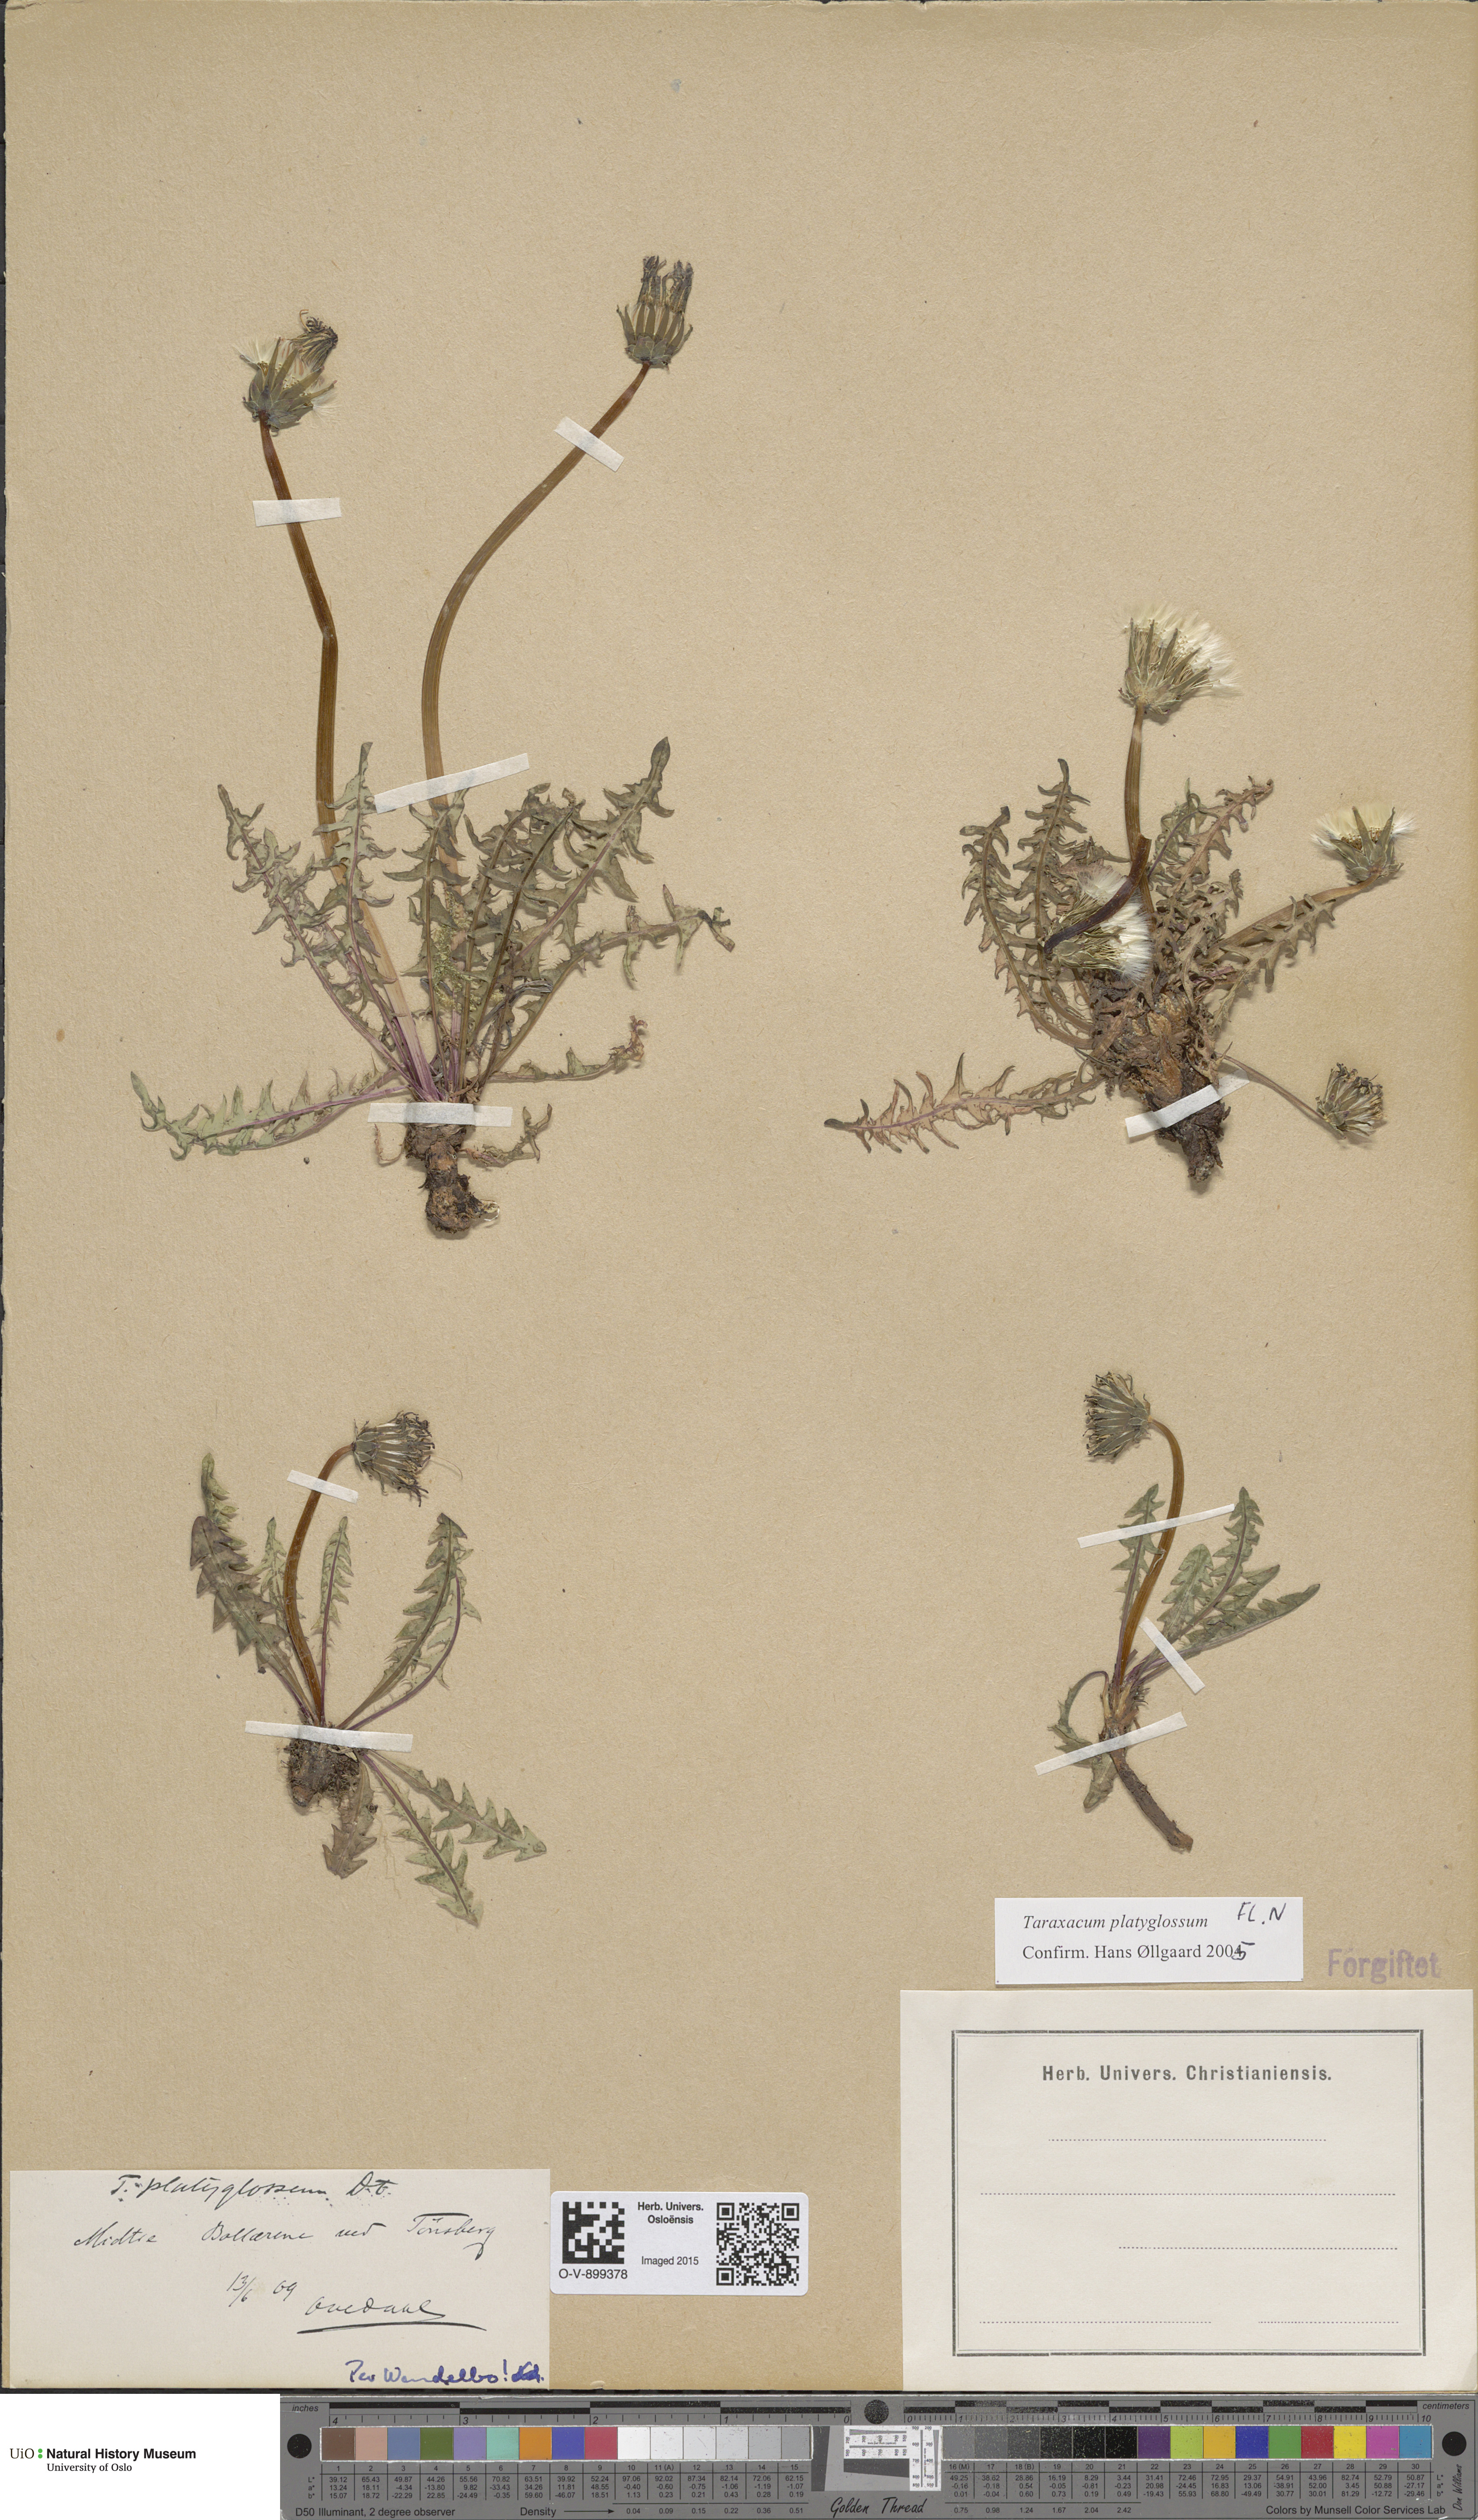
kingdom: Plantae
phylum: Tracheophyta
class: Magnoliopsida
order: Asterales
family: Asteraceae
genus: Taraxacum
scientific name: Taraxacum platyglossum
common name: Tongue-leaved dandelion
